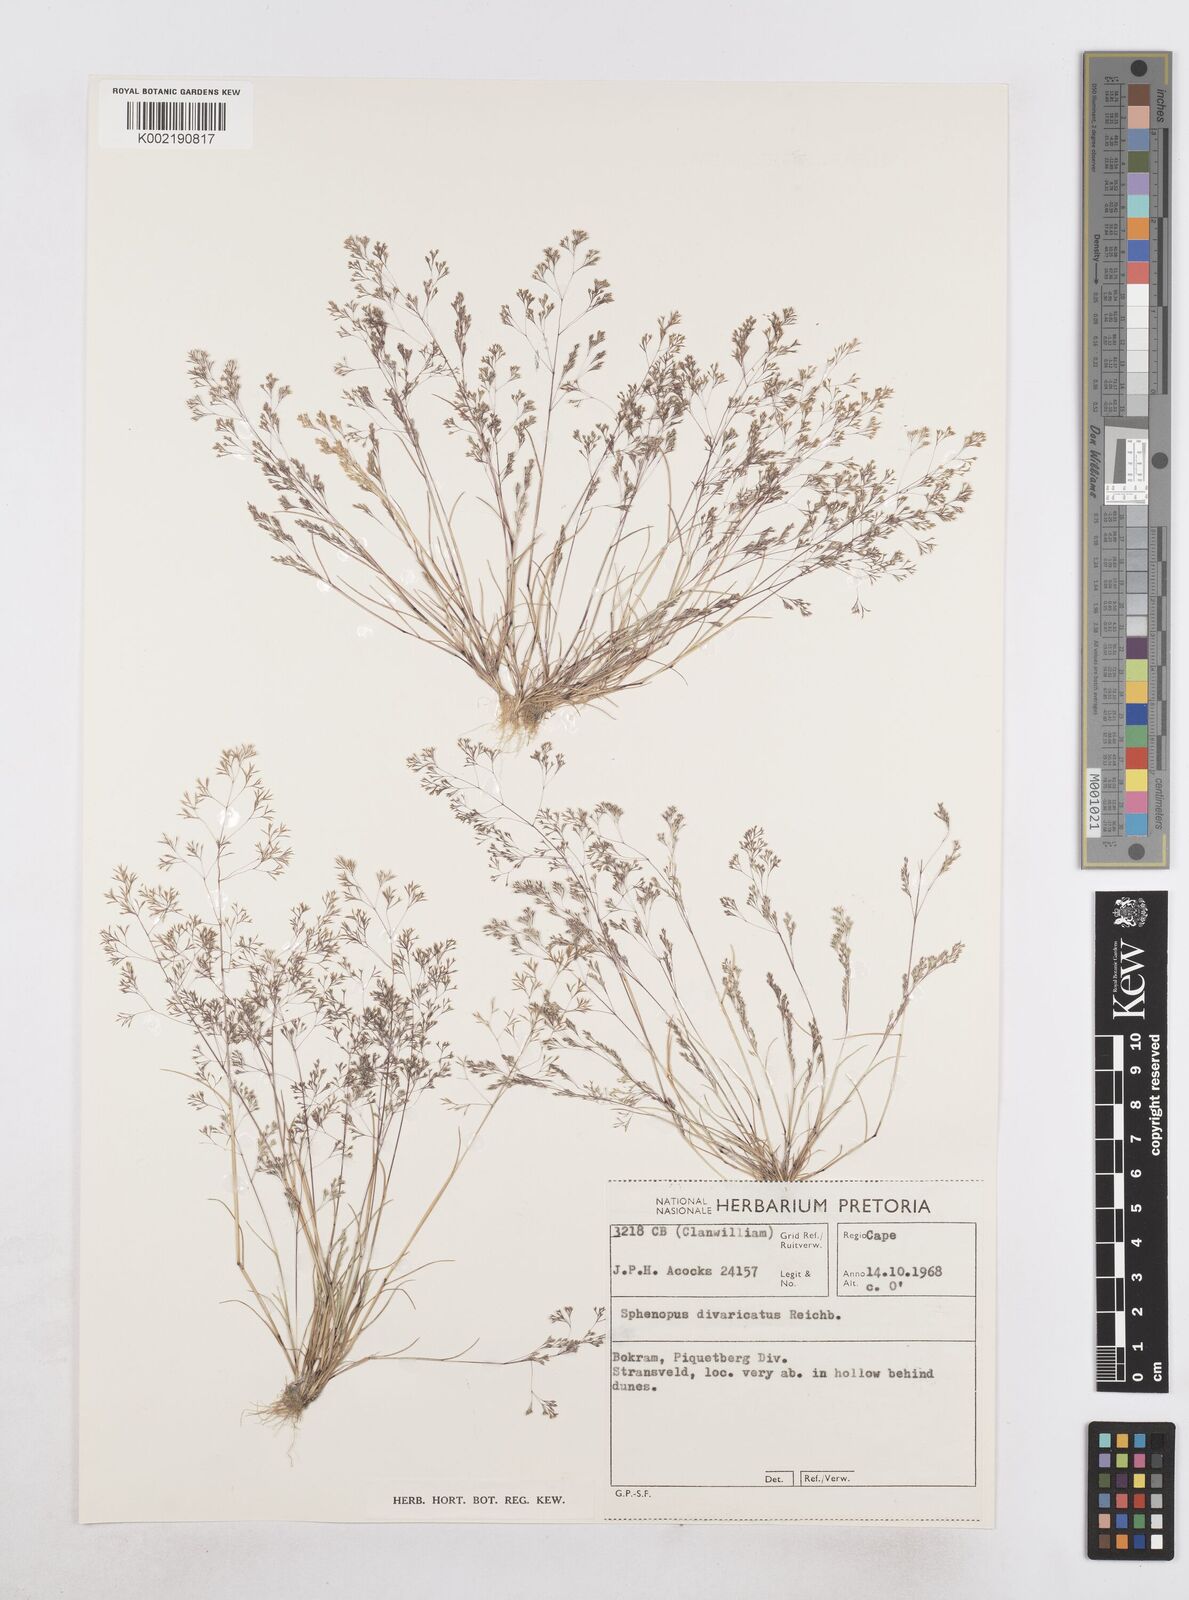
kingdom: Plantae
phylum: Tracheophyta
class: Liliopsida
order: Poales
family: Poaceae
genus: Sphenopus
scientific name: Sphenopus divaricatus
